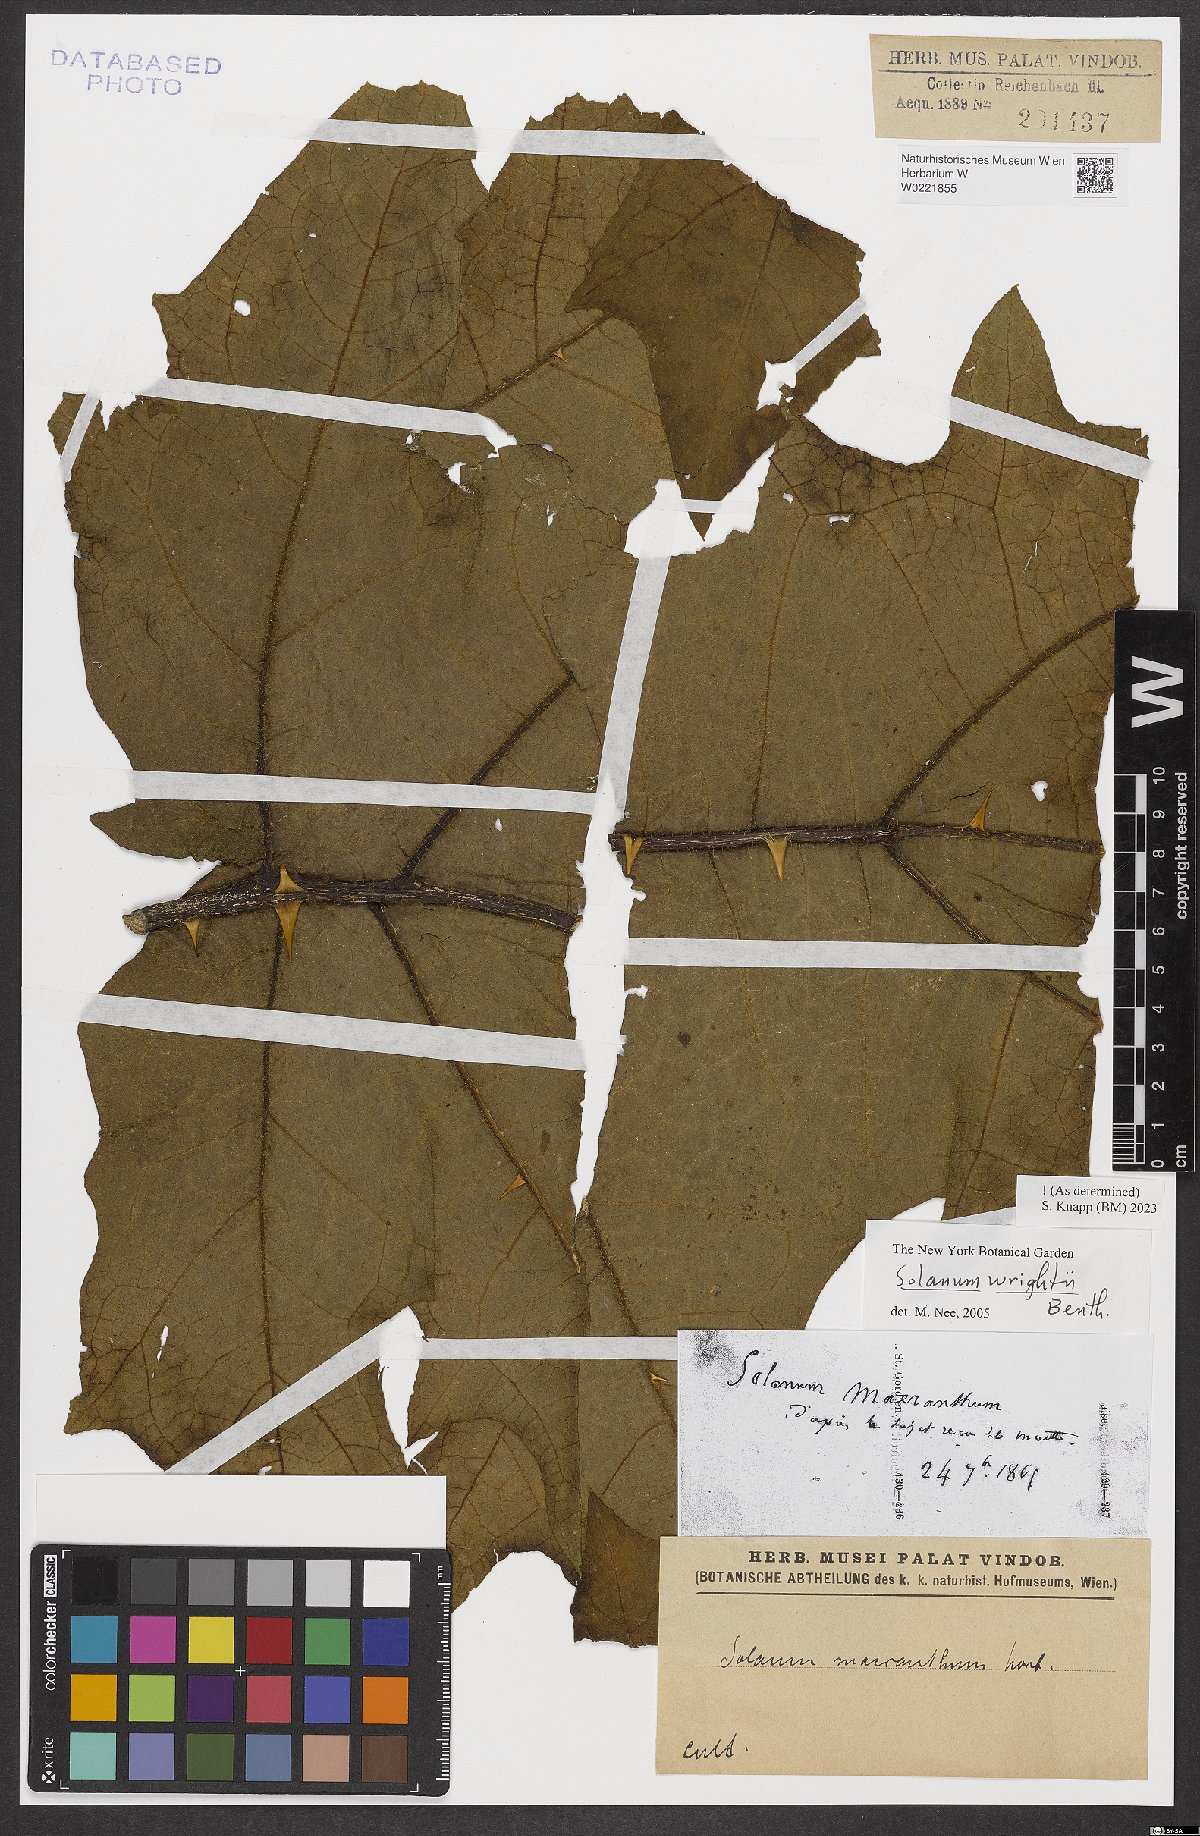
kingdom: Plantae
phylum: Tracheophyta
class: Magnoliopsida
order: Solanales
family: Solanaceae
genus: Solanum
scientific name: Solanum wrightii
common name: Brazilian potato-tree
